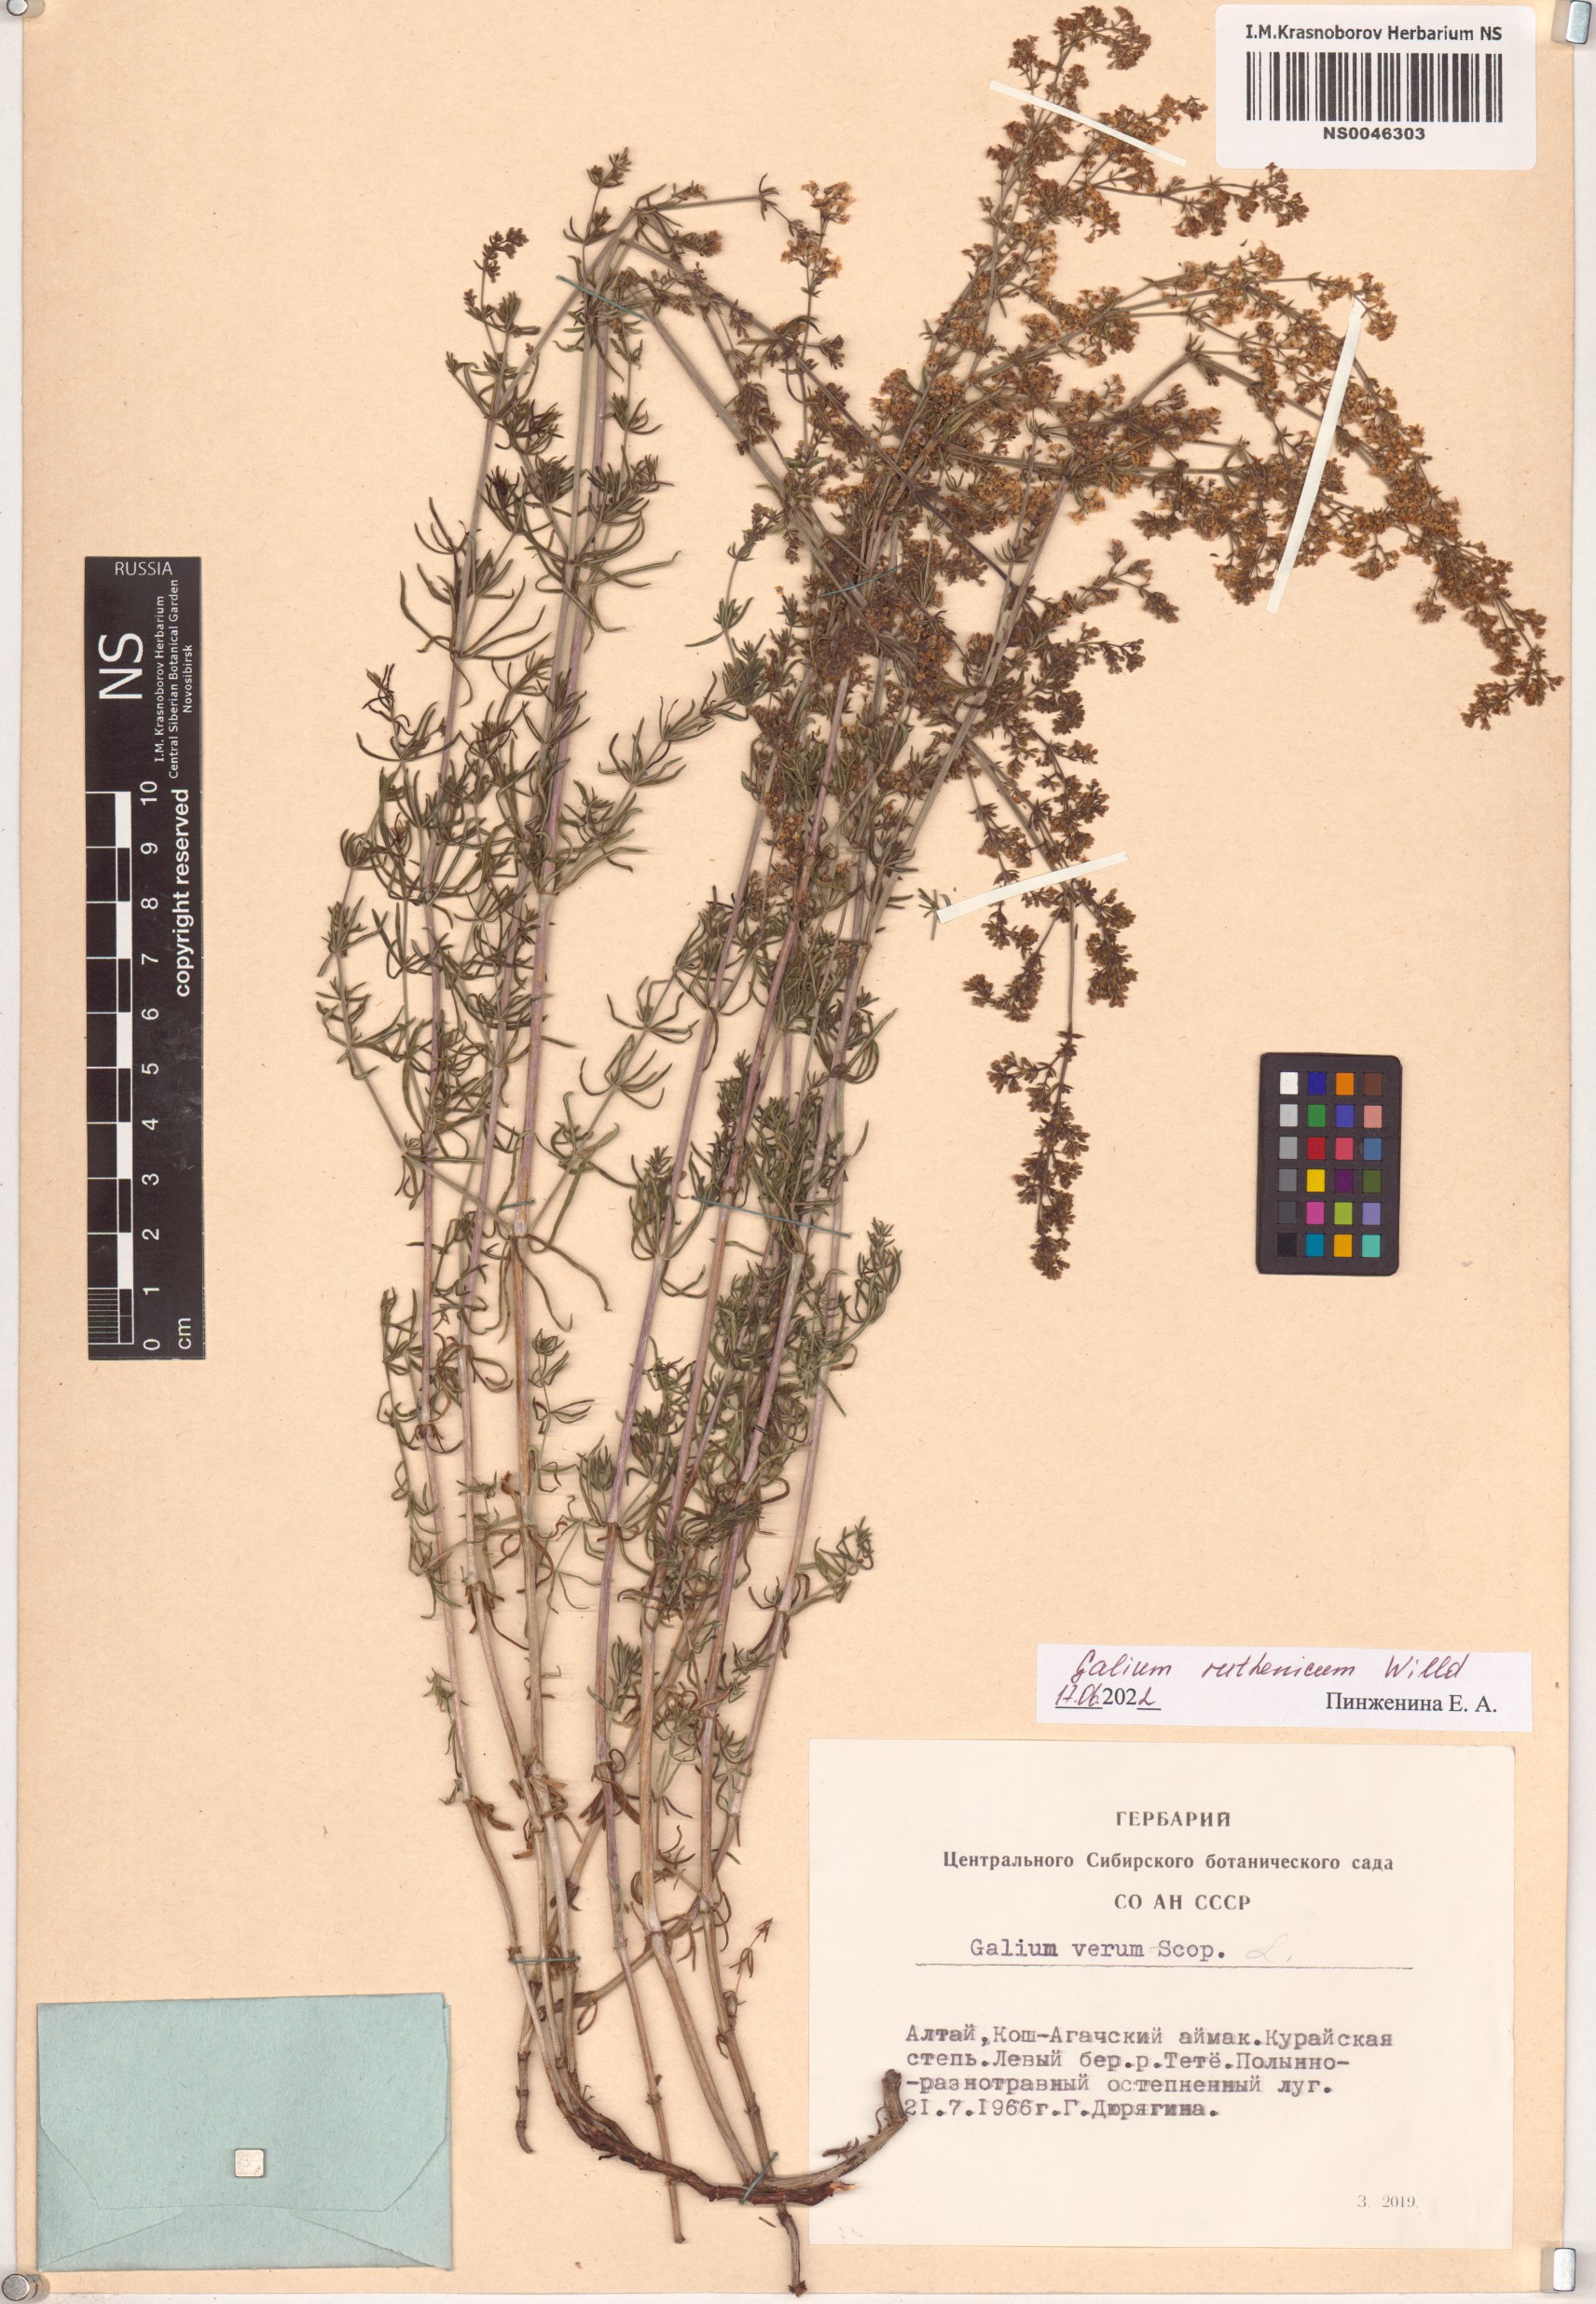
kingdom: Plantae
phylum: Tracheophyta
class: Magnoliopsida
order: Gentianales
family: Rubiaceae
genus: Galium
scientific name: Galium verum
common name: Lady's bedstraw
